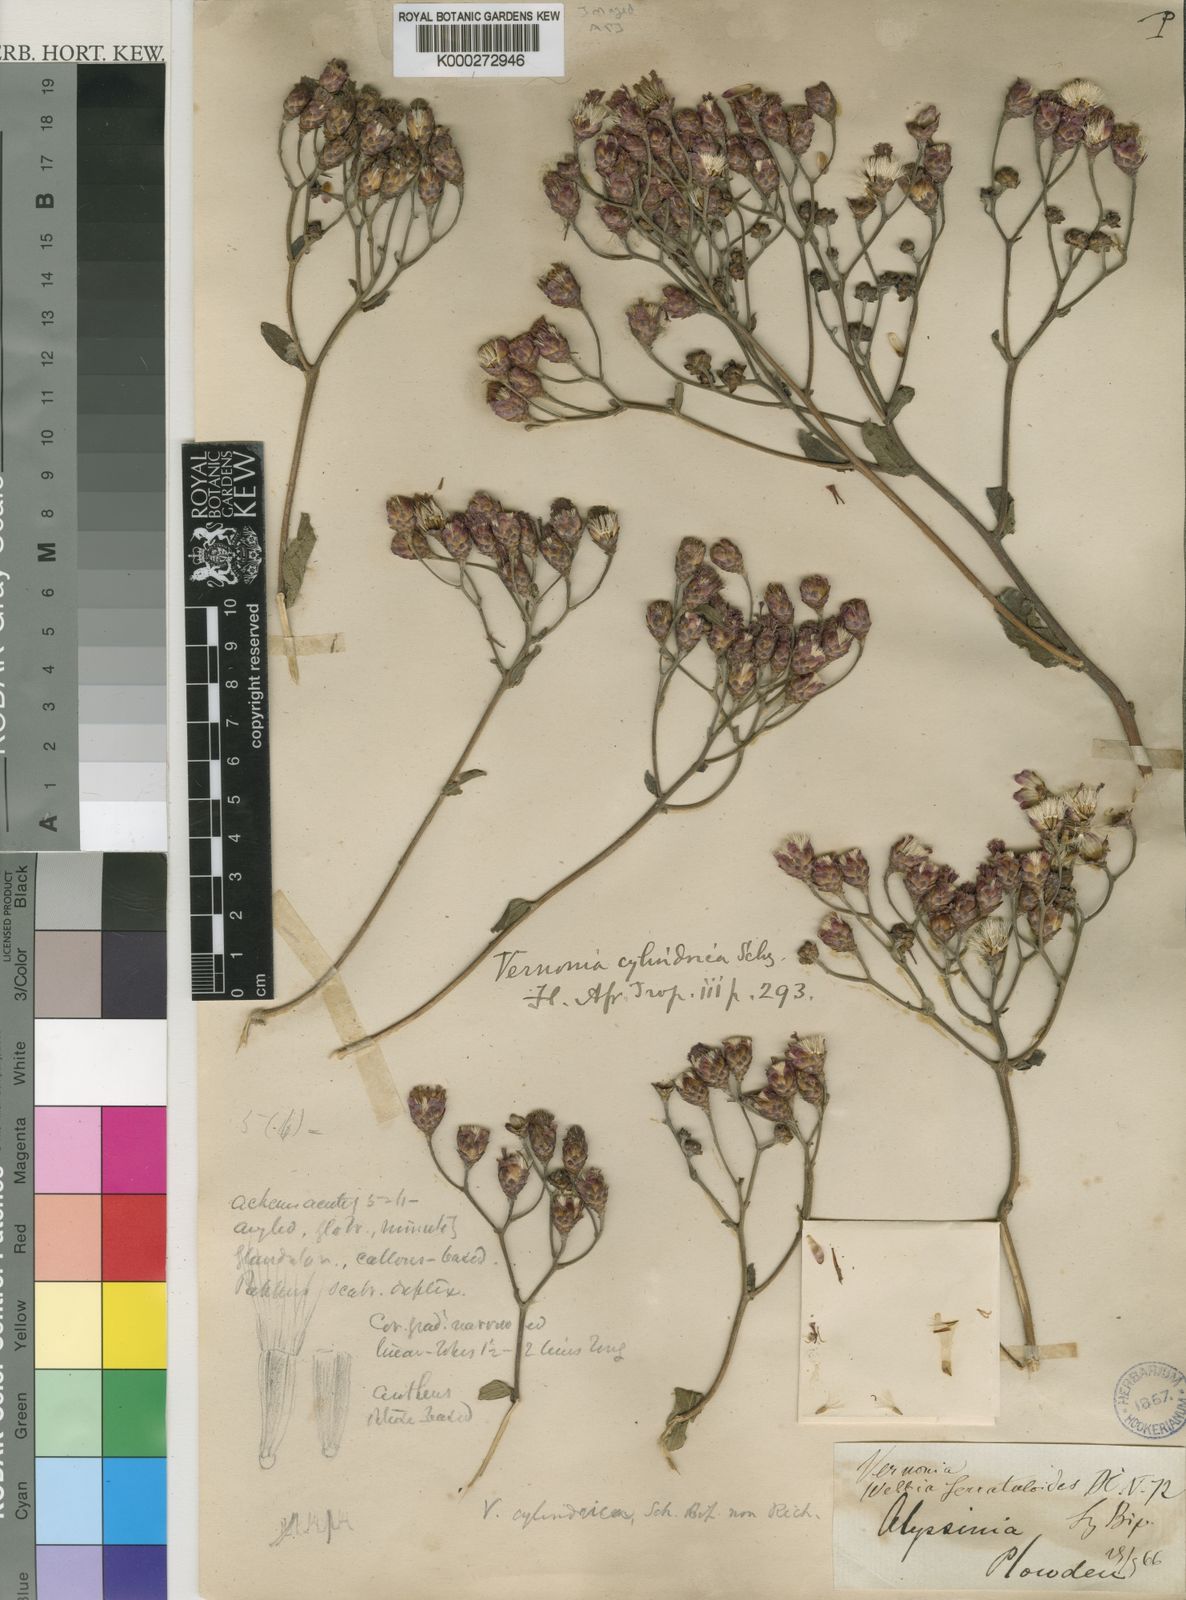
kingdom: Plantae
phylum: Tracheophyta
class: Magnoliopsida
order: Asterales
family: Asteraceae
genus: Vernonia
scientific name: Vernonia cylindrica
